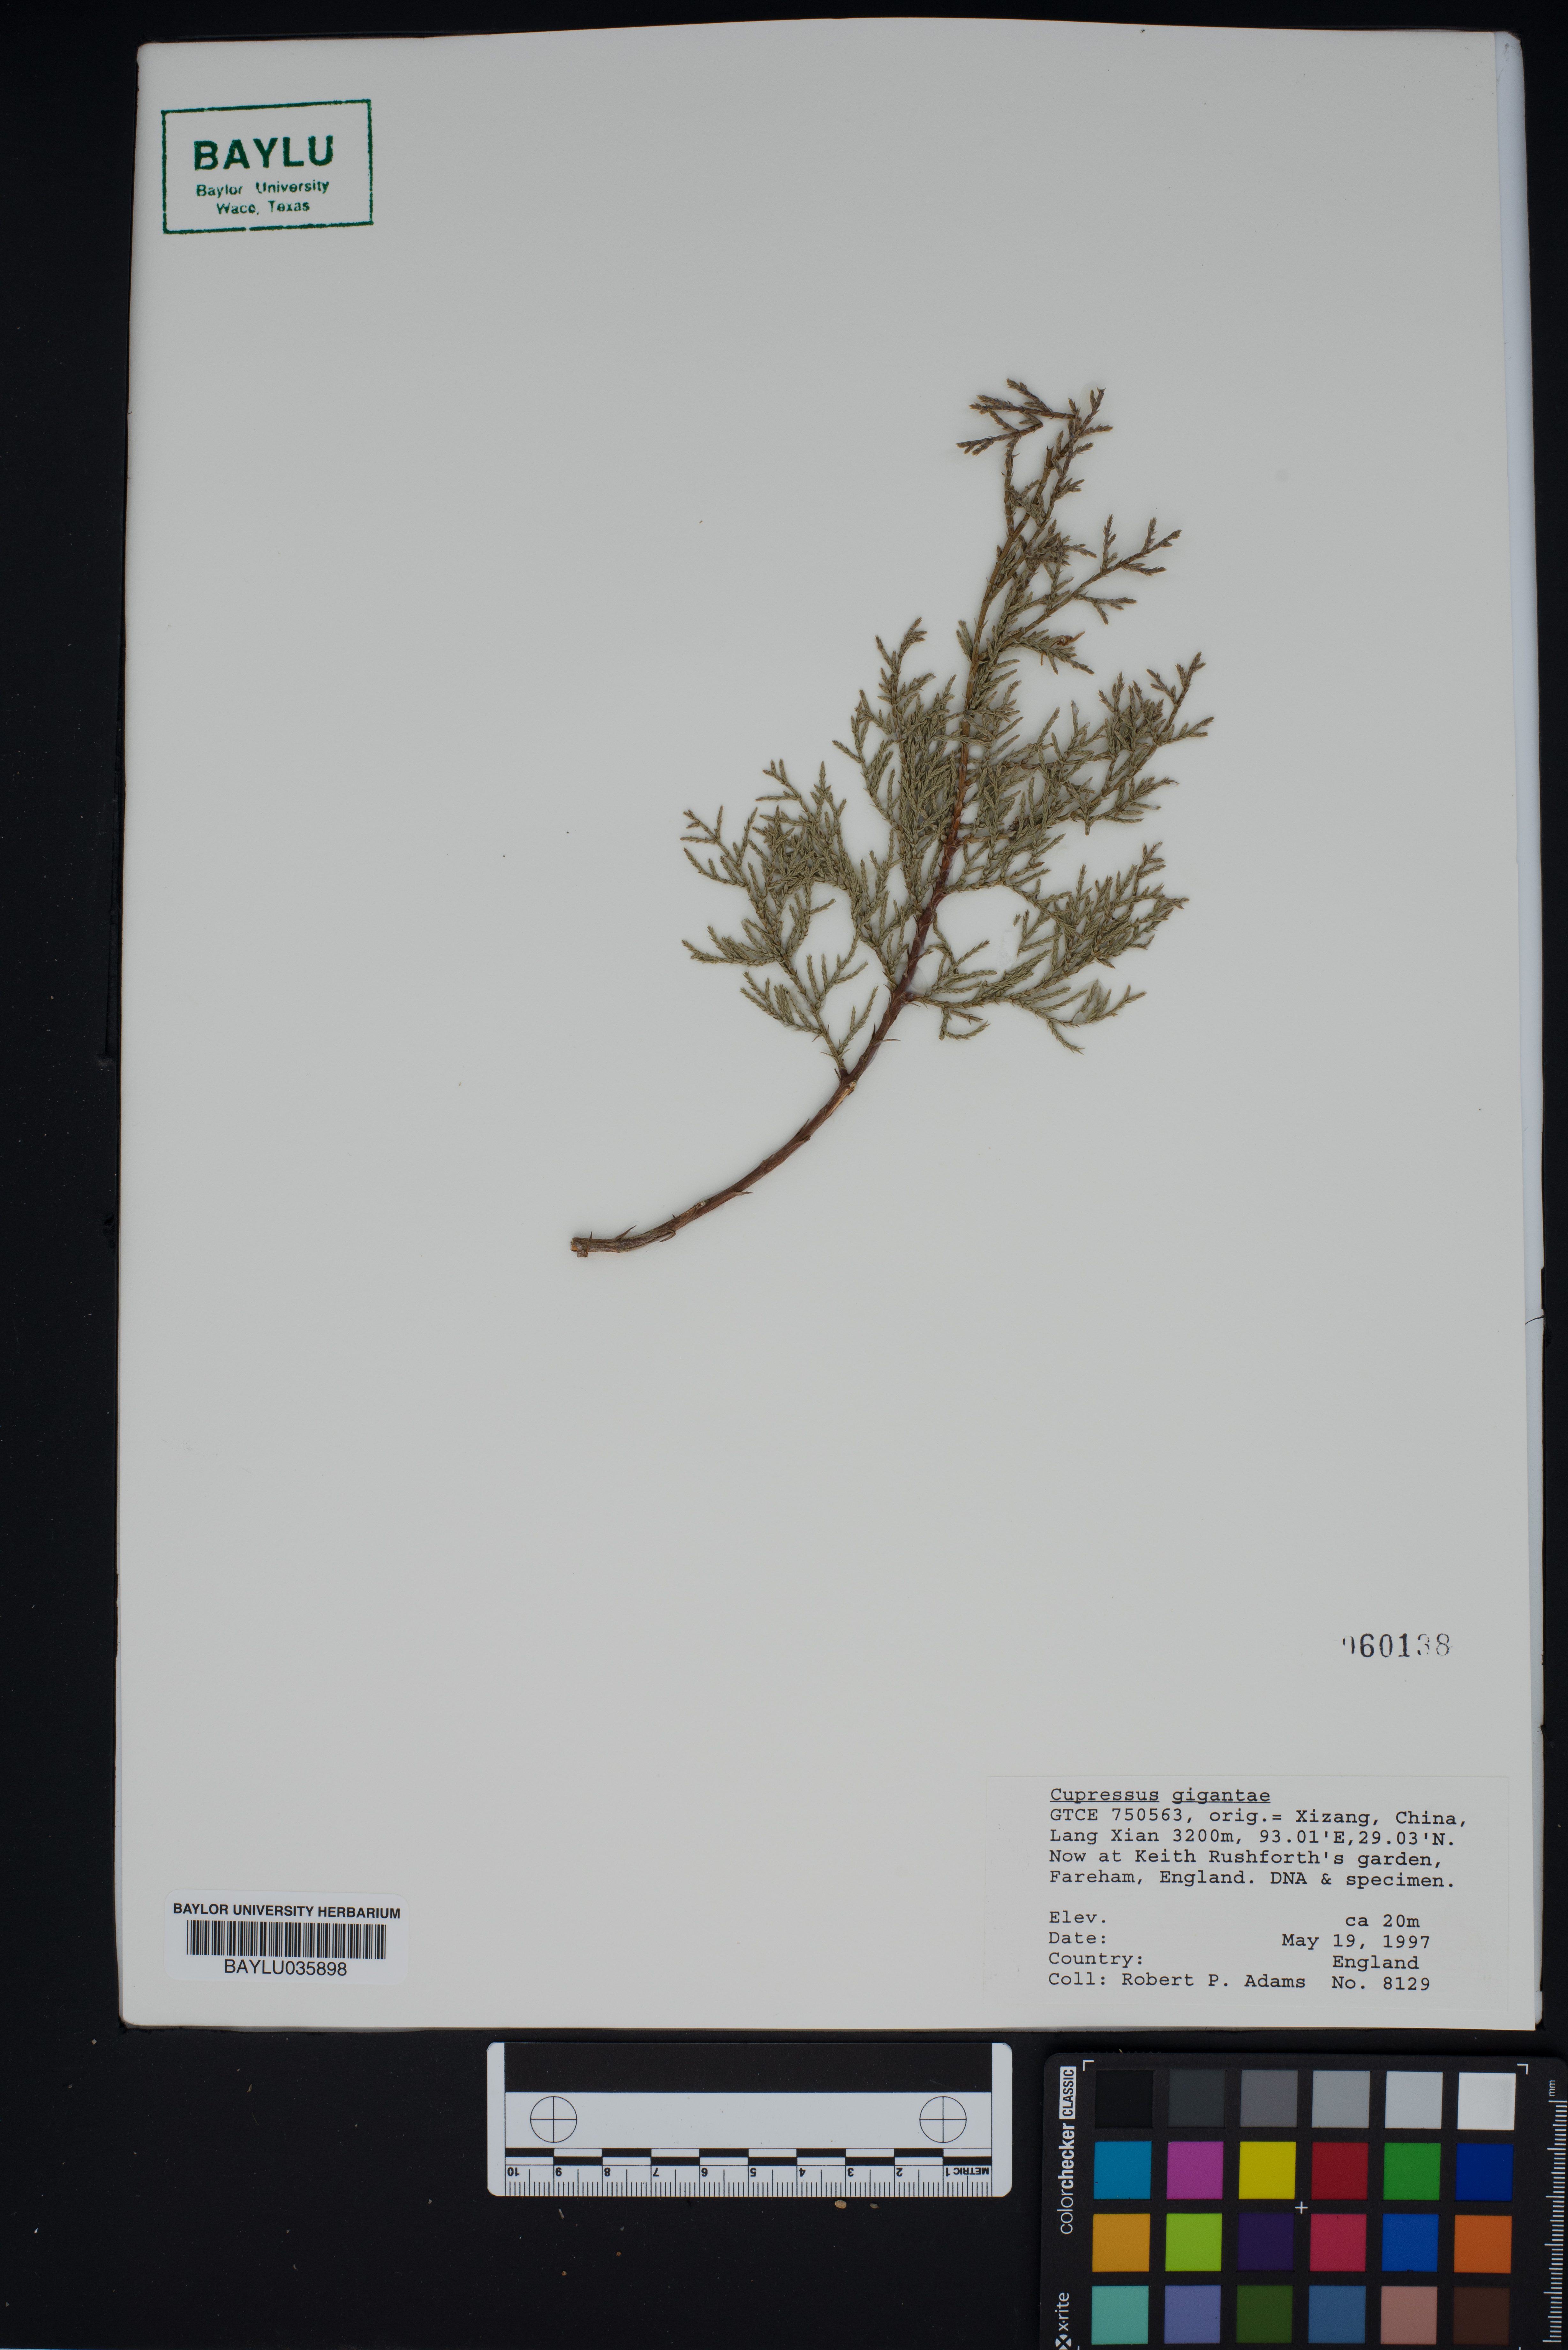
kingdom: Plantae
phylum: Tracheophyta
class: Pinopsida
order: Pinales
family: Cupressaceae
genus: Cupressus
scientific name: Cupressus torulosa
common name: Himalayan cypress
